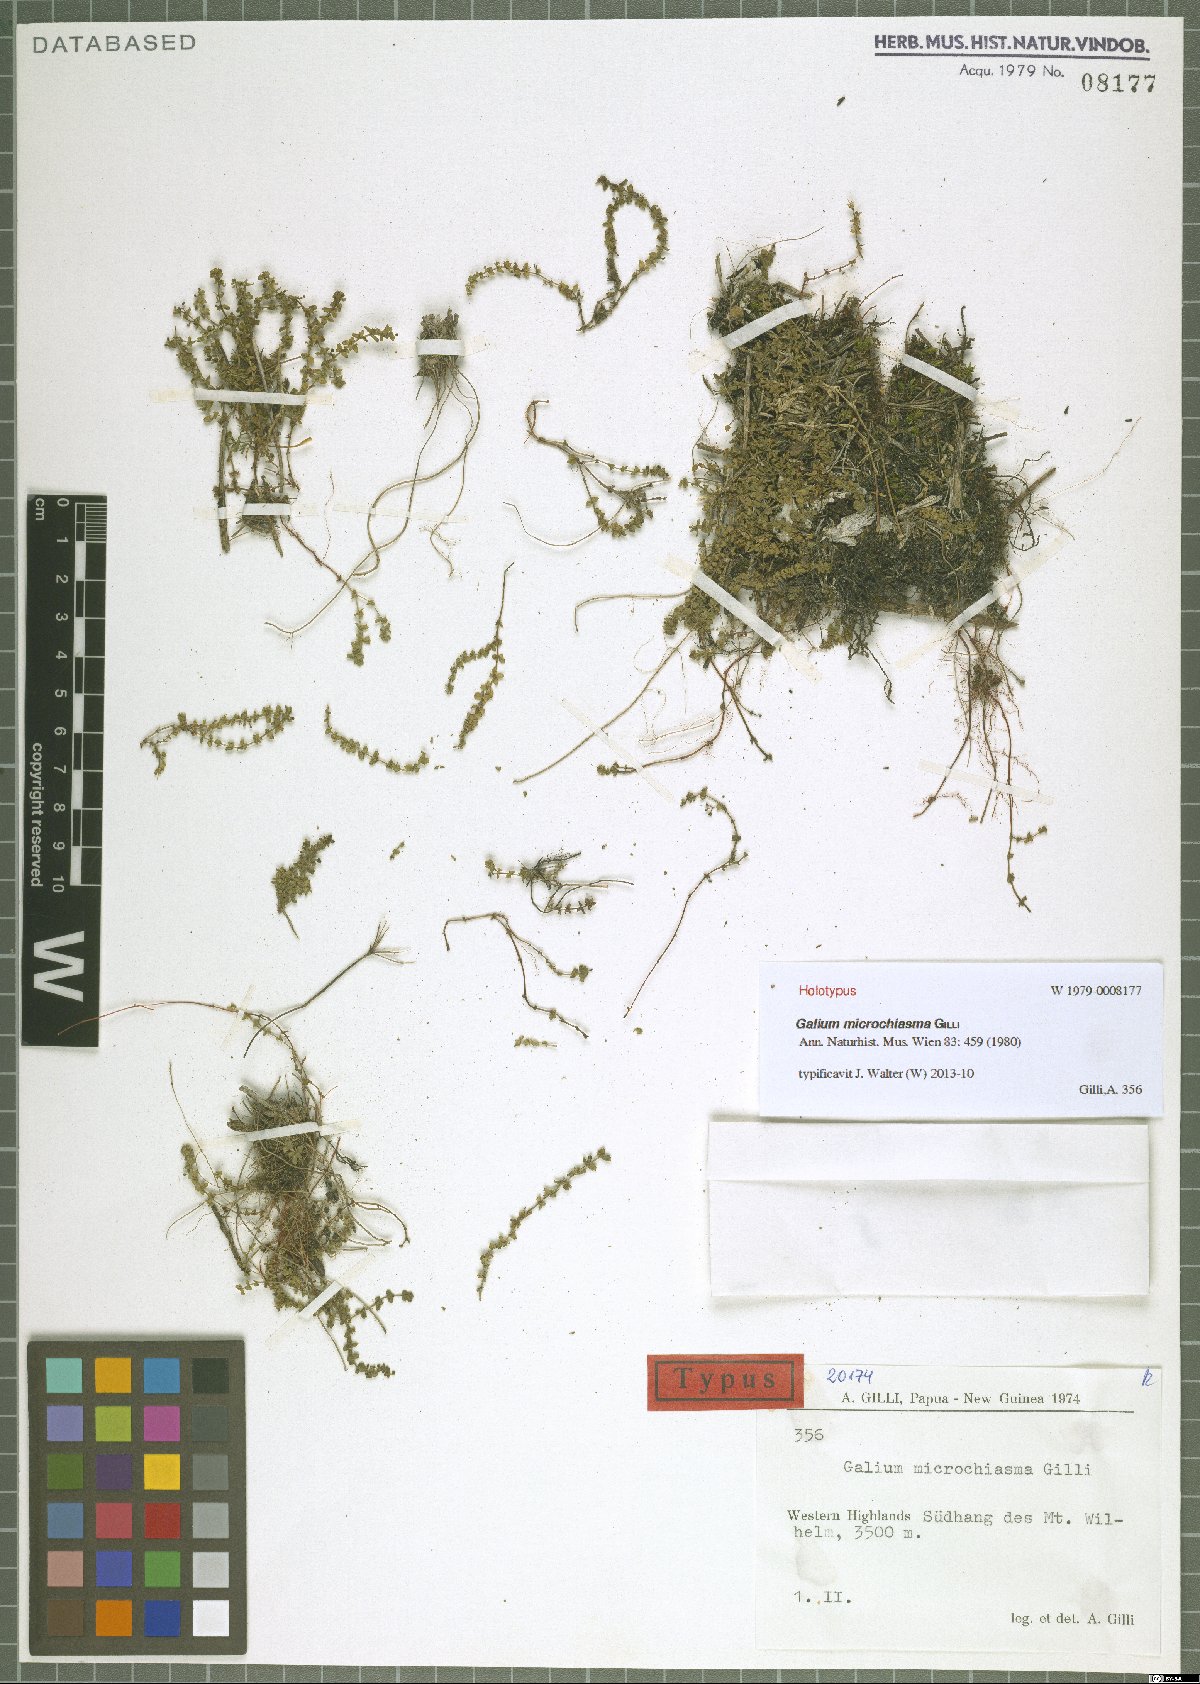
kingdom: Plantae
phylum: Tracheophyta
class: Magnoliopsida
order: Gentianales
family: Rubiaceae
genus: Galium
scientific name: Galium microchiasma
